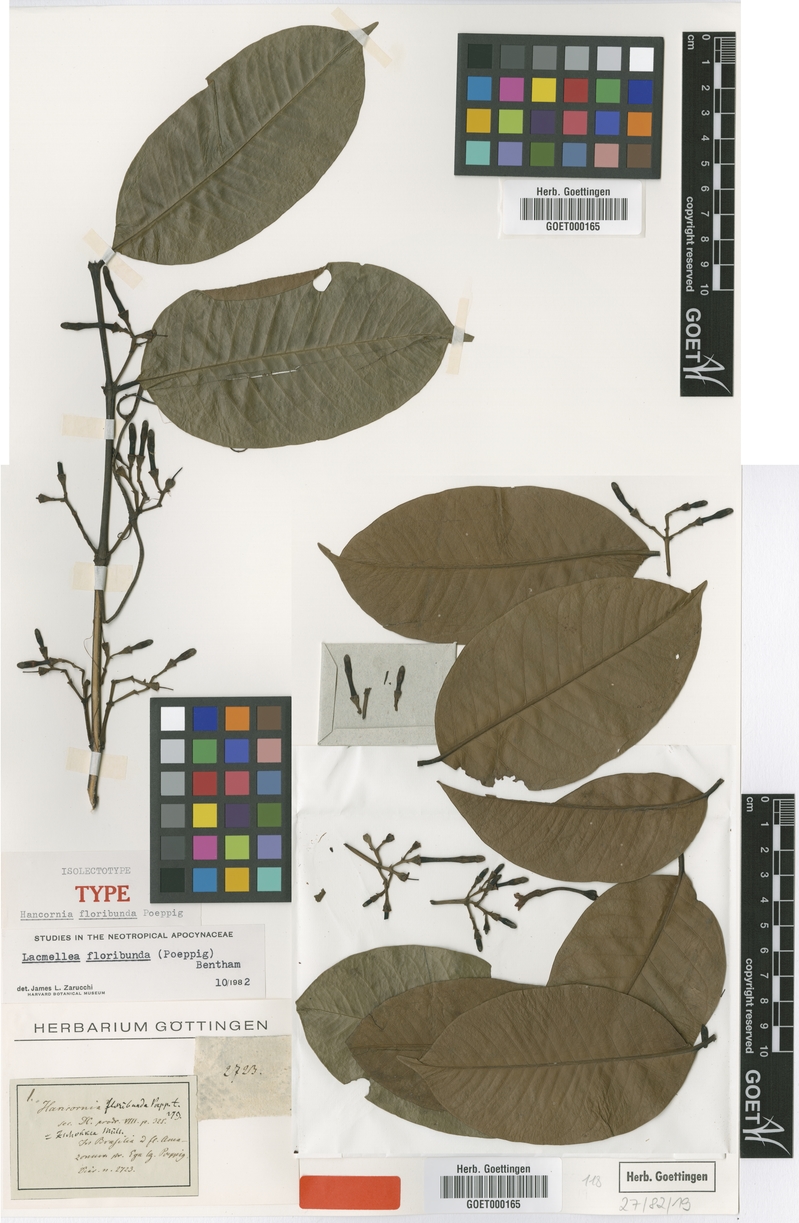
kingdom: Plantae
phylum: Tracheophyta
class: Magnoliopsida
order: Gentianales
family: Apocynaceae
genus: Lacmellea
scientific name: Lacmellea floribunda
